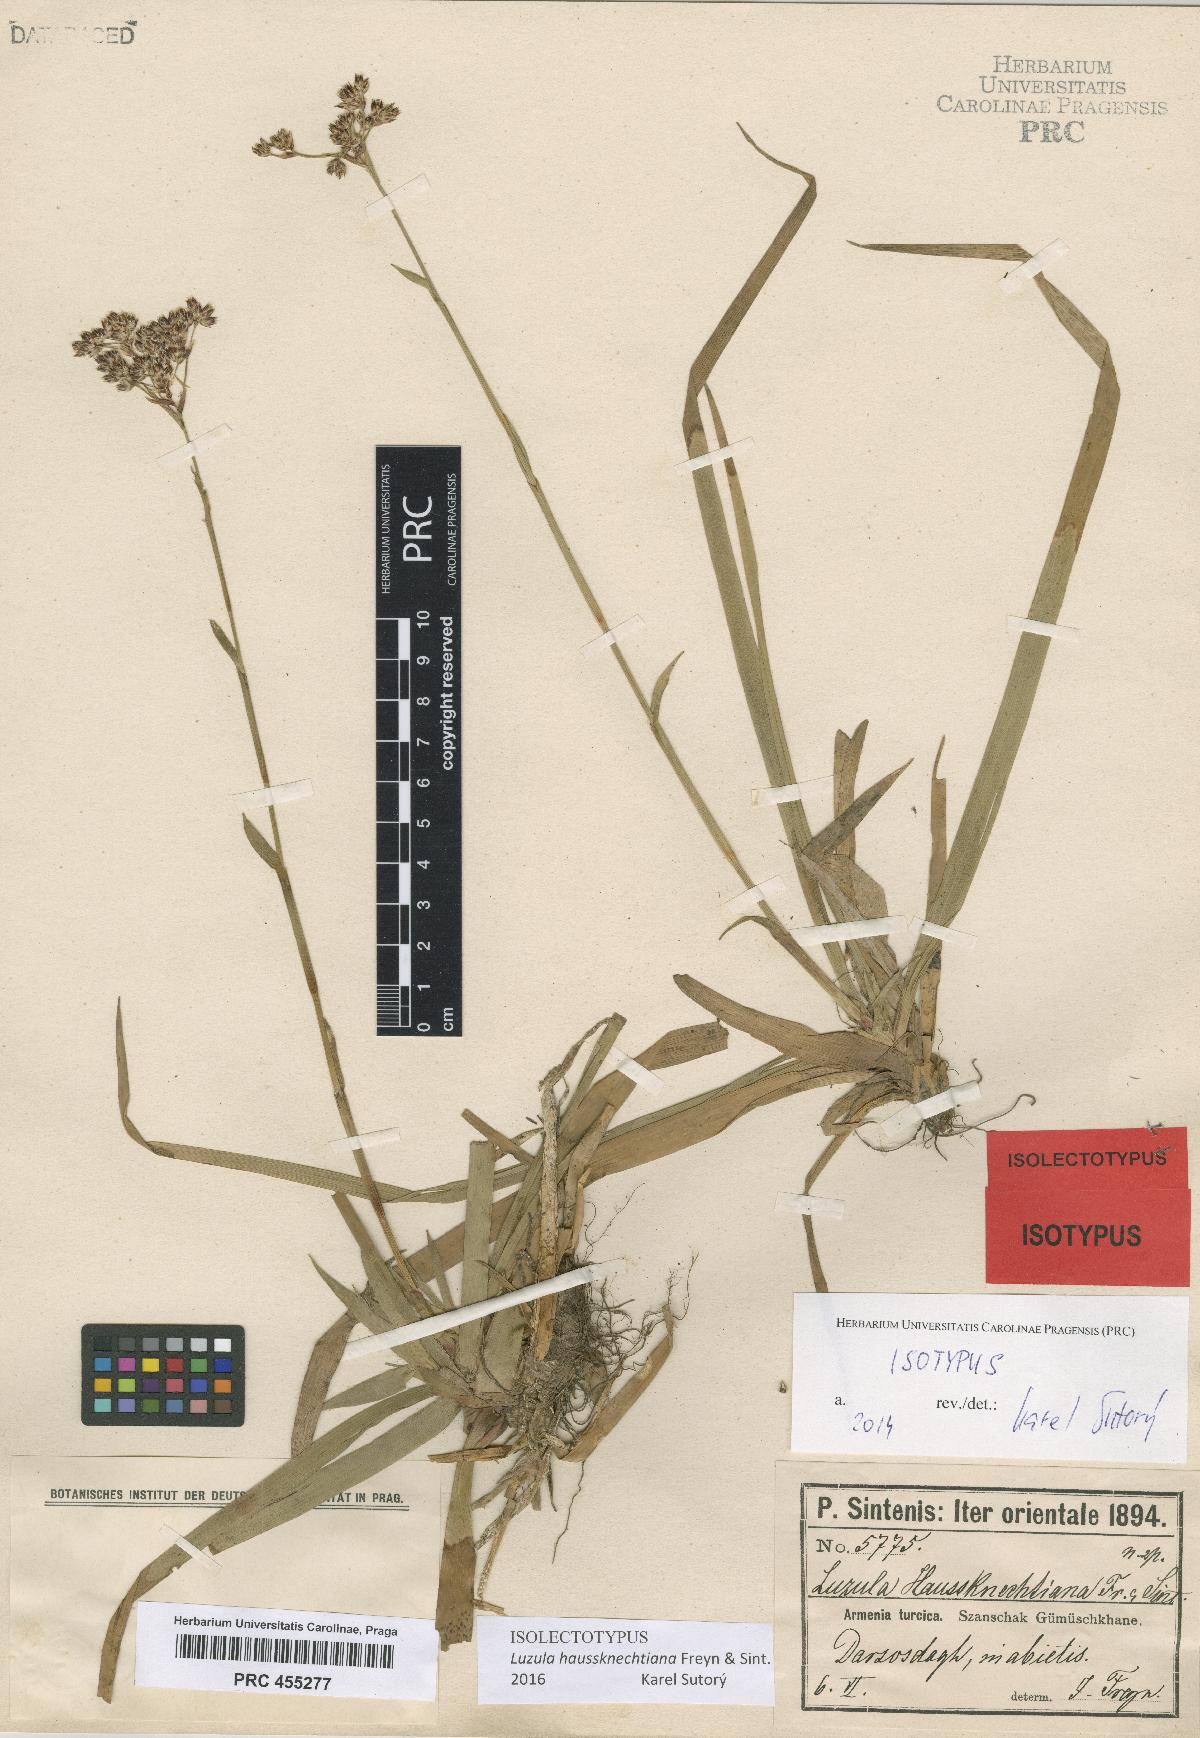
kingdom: Plantae
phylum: Tracheophyta
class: Liliopsida
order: Poales
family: Juncaceae
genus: Luzula
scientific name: Luzula sylvatica
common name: Great wood-rush
